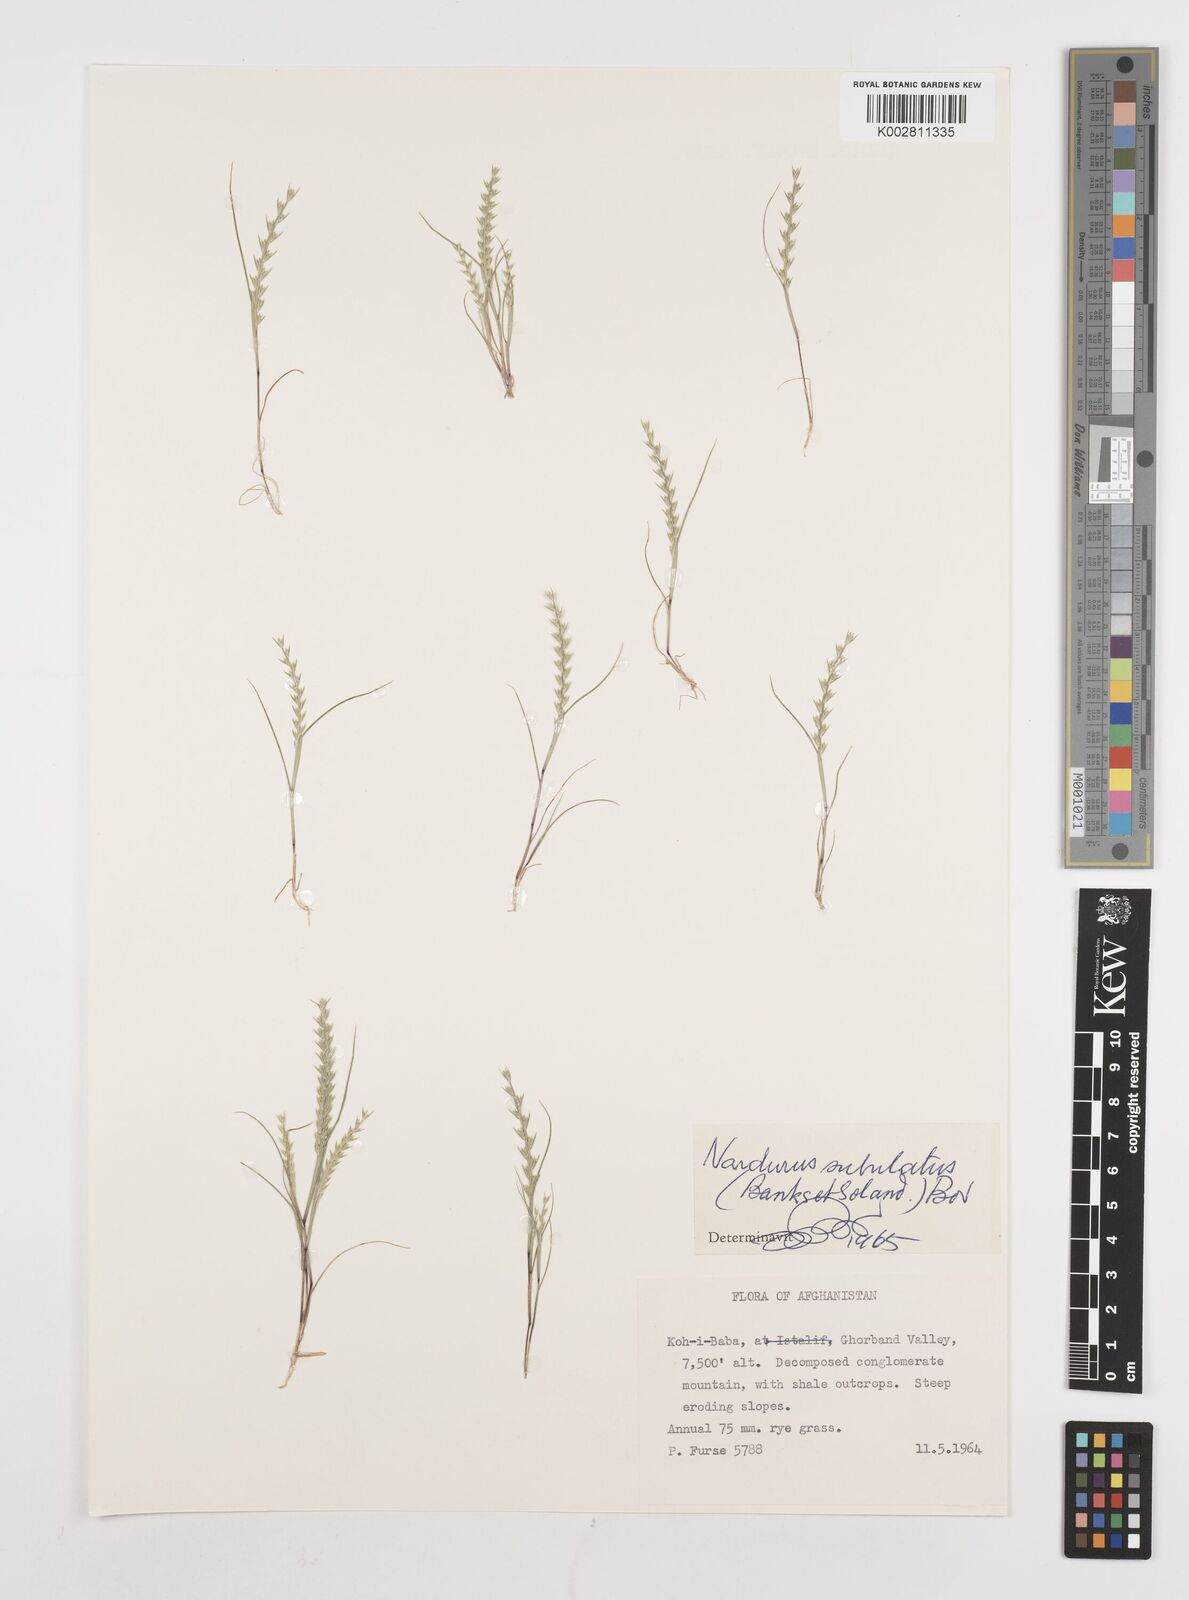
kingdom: Plantae
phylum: Tracheophyta
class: Liliopsida
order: Poales
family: Poaceae
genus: Festuca
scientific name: Festuca orientalis
